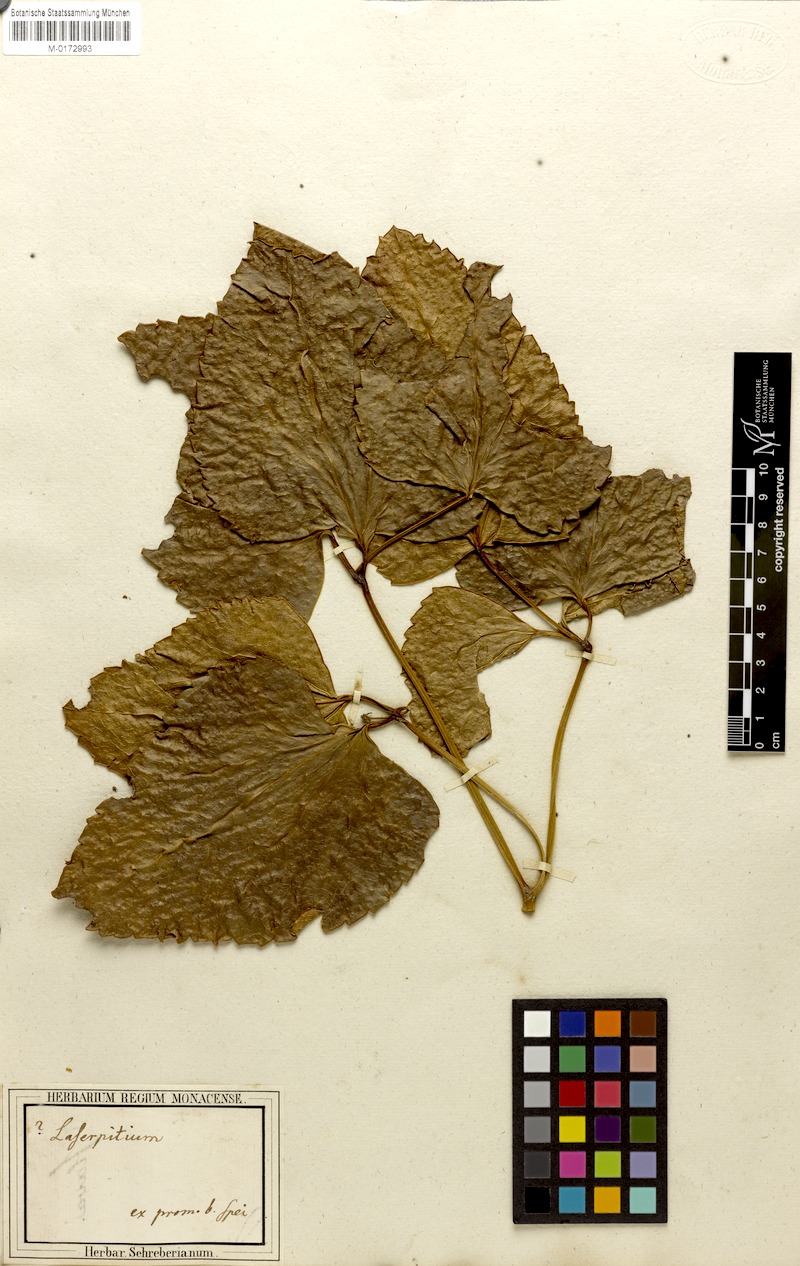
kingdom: Plantae
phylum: Tracheophyta
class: Magnoliopsida
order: Apiales
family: Apiaceae
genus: Laserpitium
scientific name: Laserpitium
